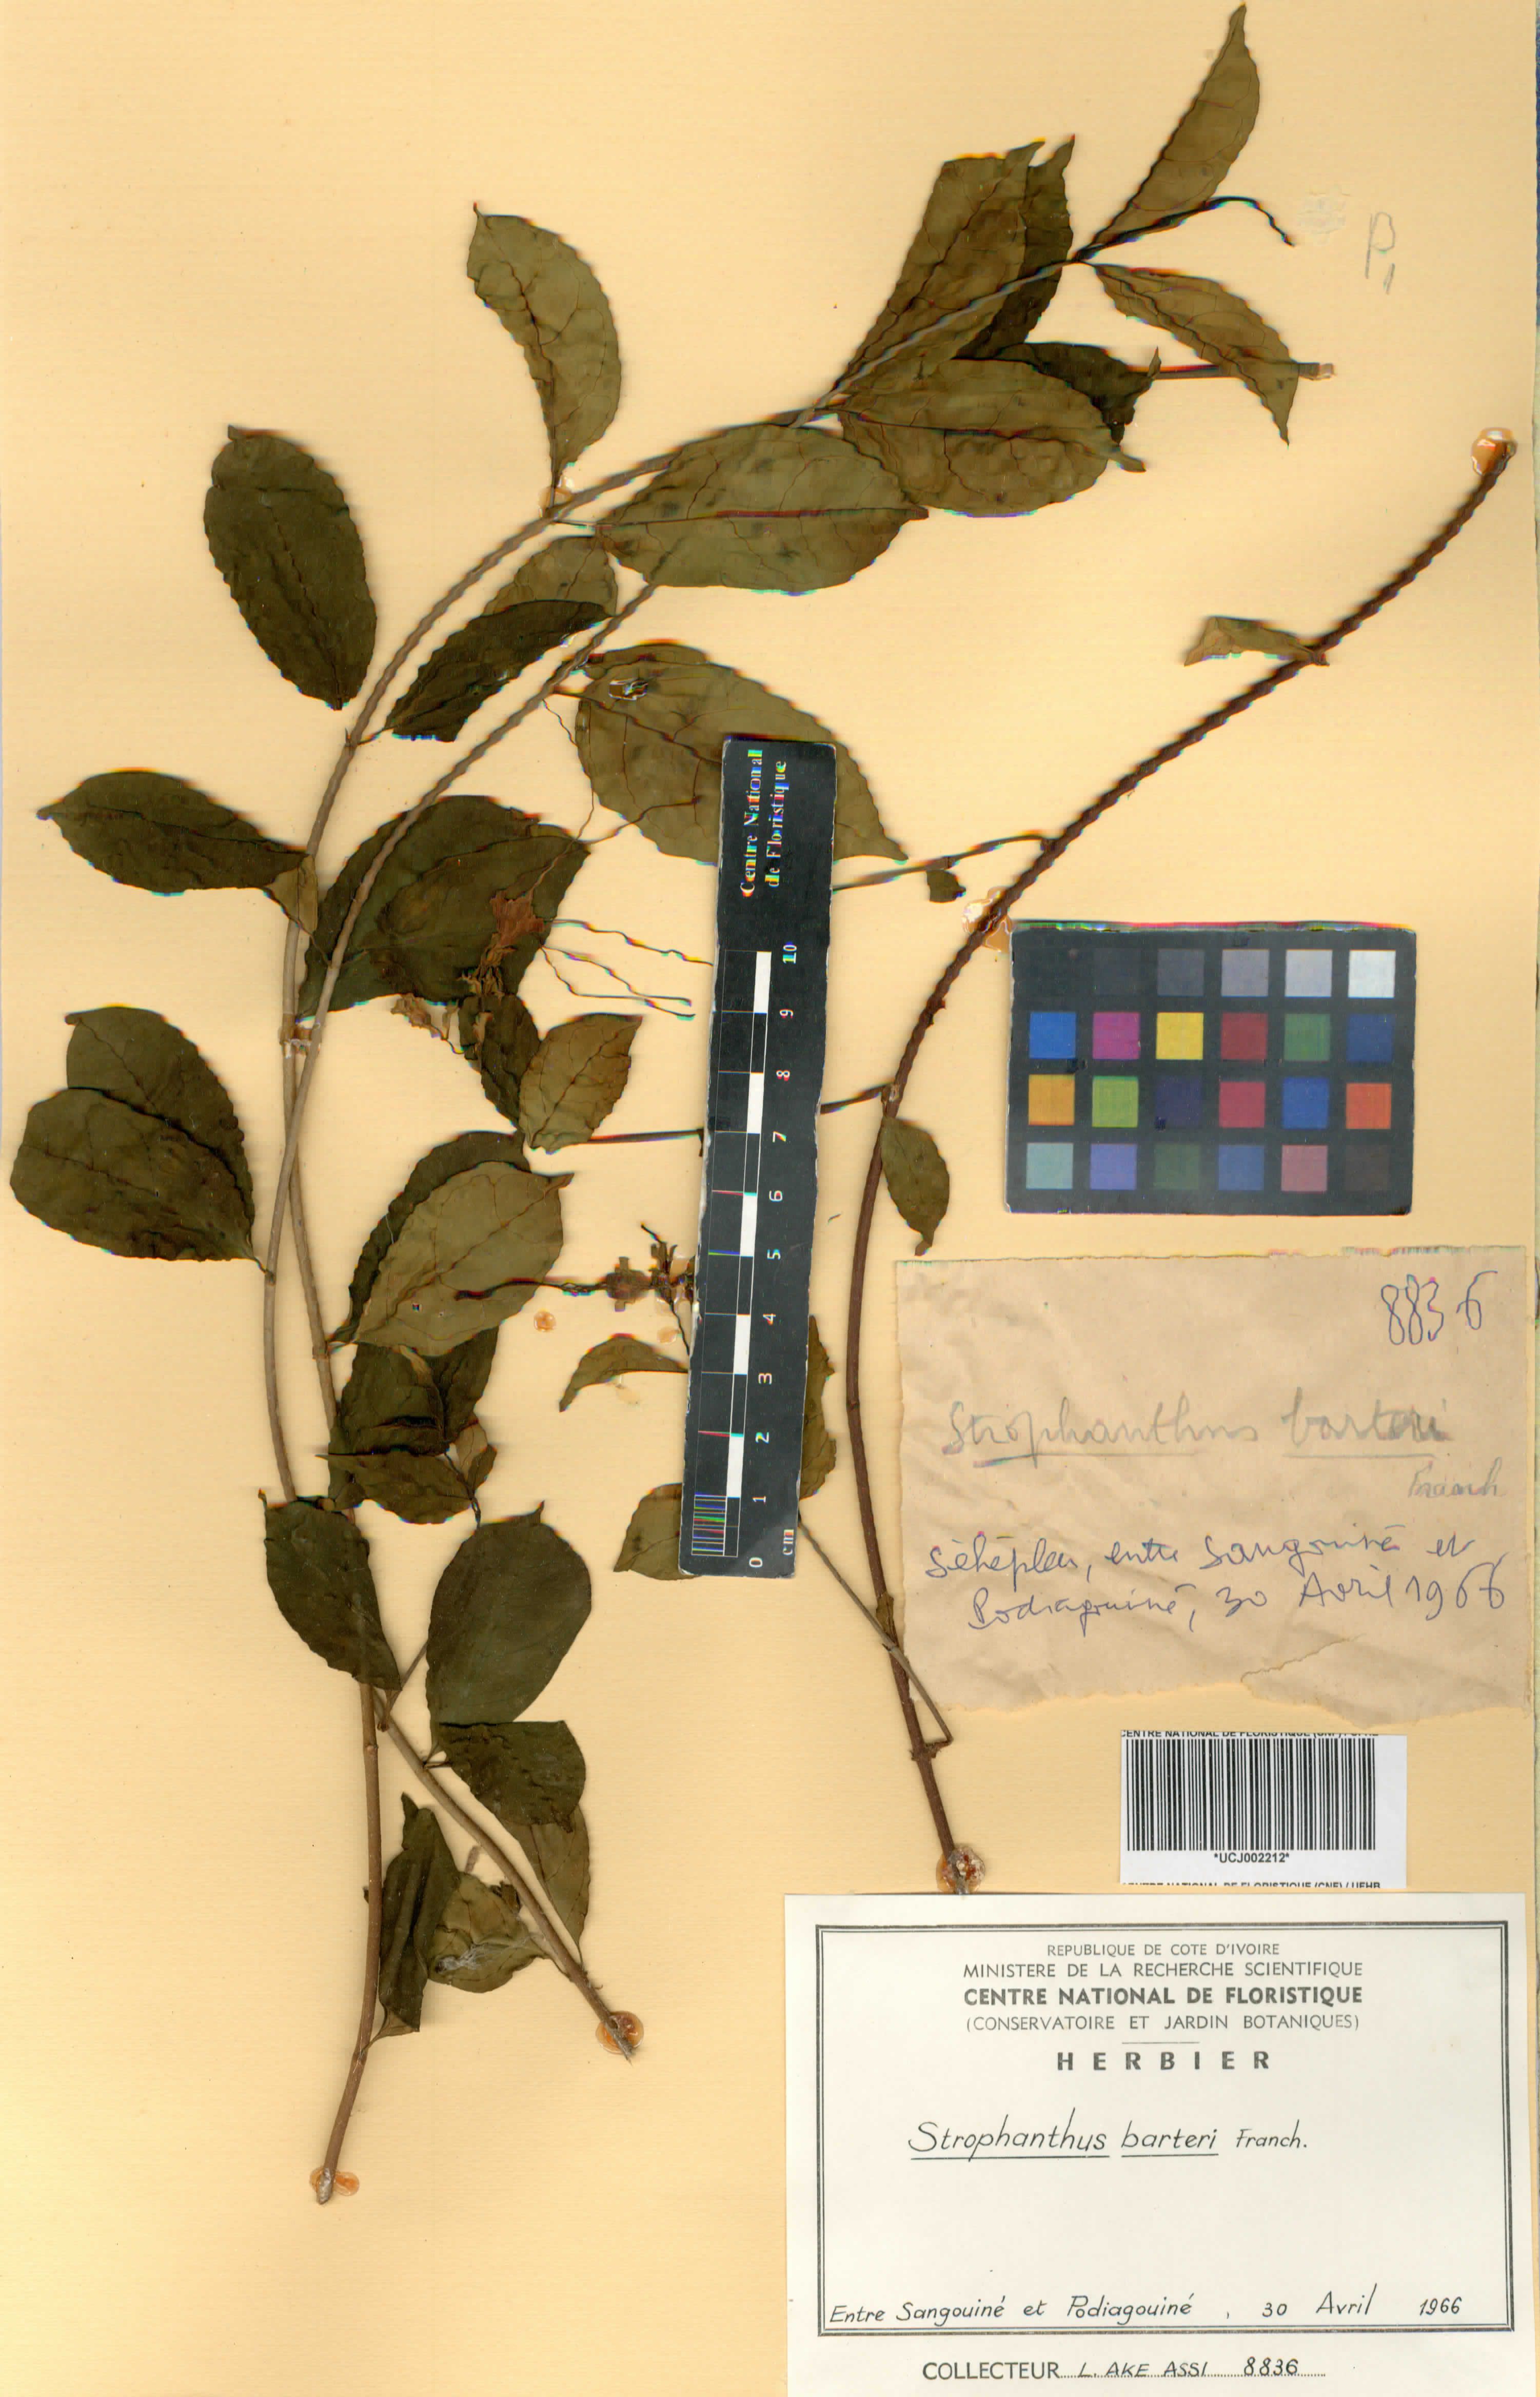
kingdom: Plantae
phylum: Tracheophyta
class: Magnoliopsida
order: Gentianales
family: Apocynaceae
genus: Strophanthus
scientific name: Strophanthus barteri
